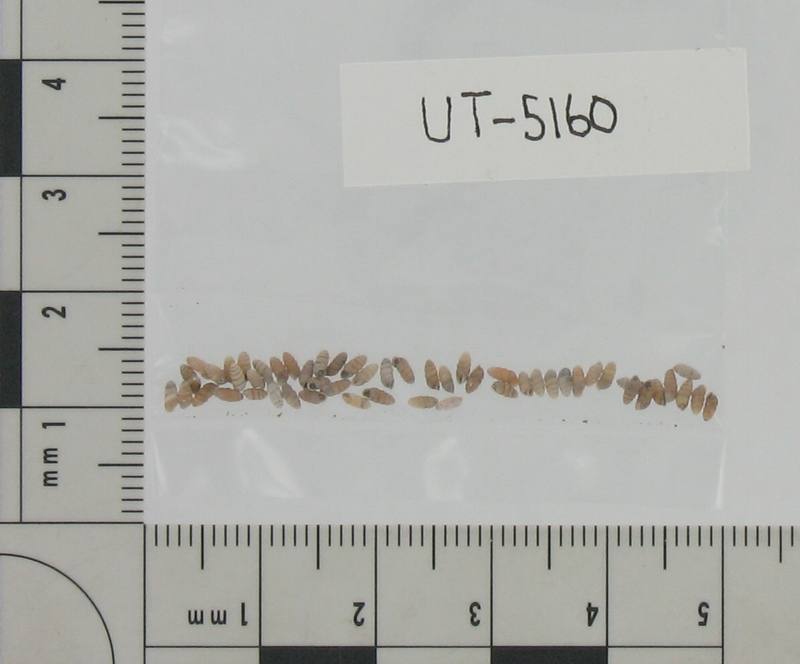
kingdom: Animalia
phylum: Mollusca
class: Gastropoda
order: Stylommatophora
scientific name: Stylommatophora
